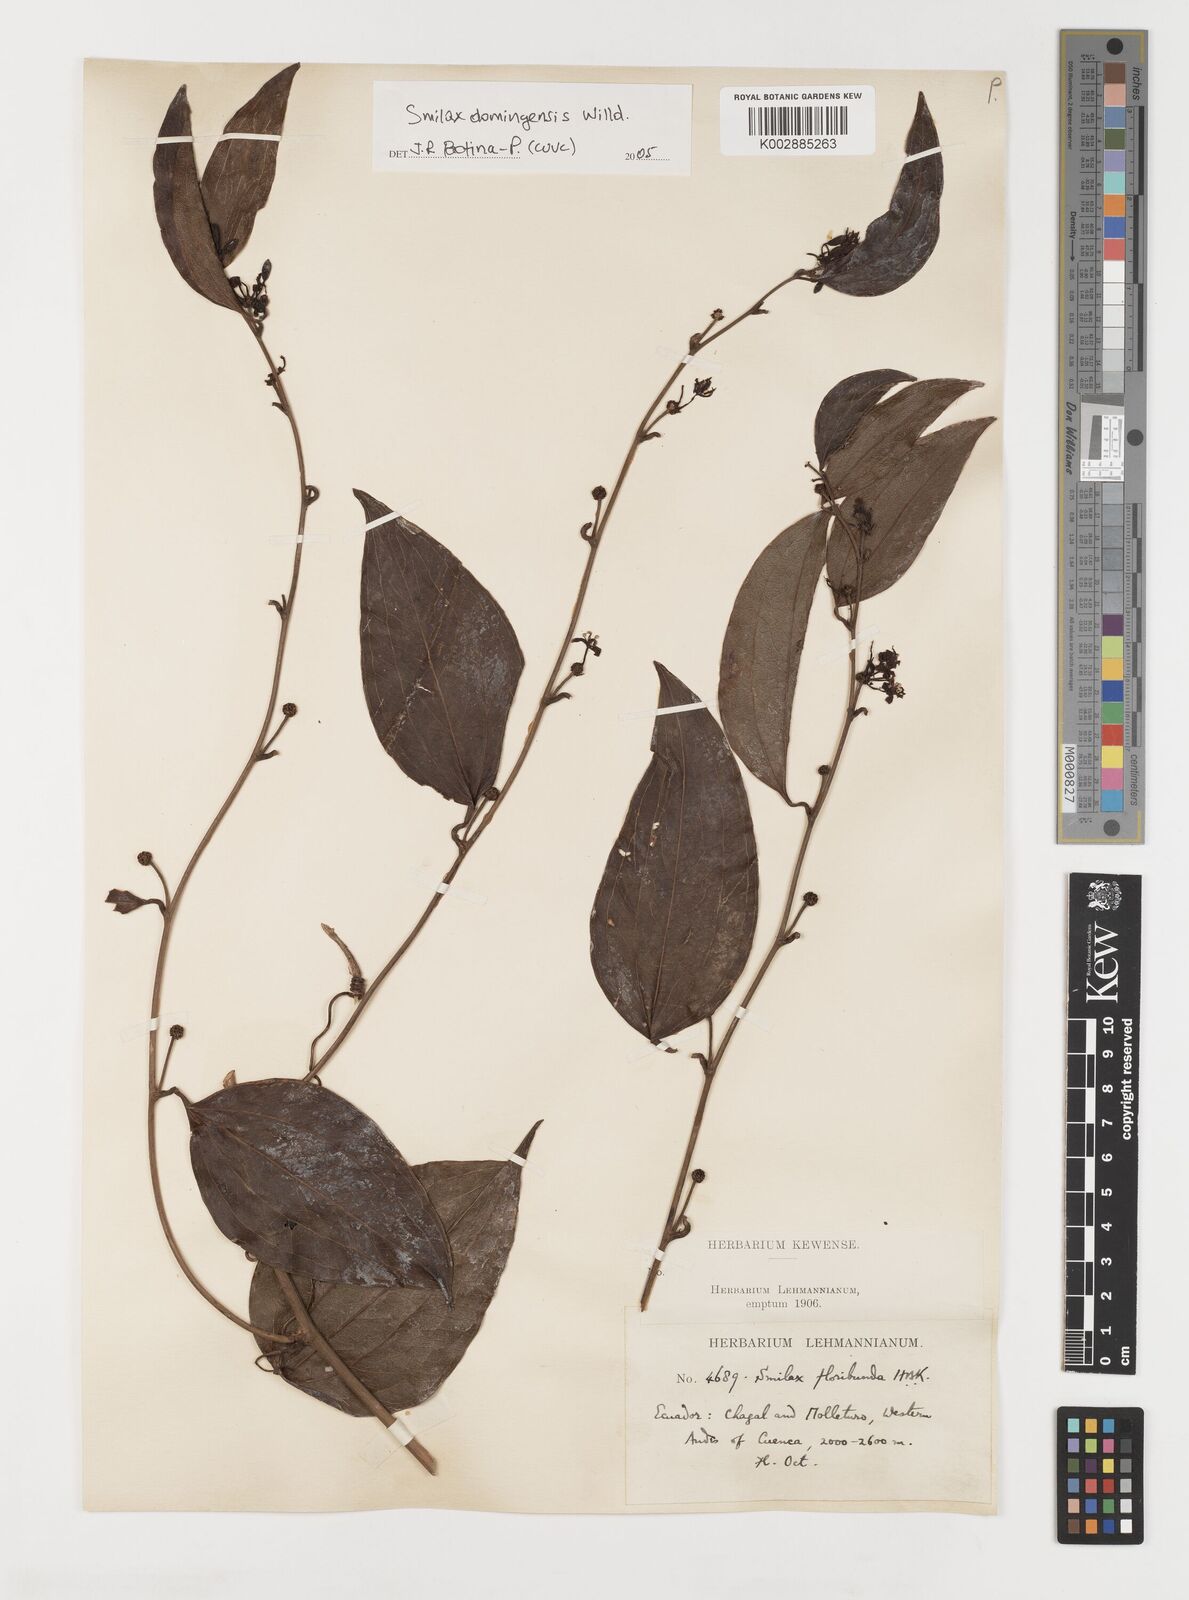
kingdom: Plantae
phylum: Tracheophyta
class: Liliopsida
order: Liliales
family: Smilacaceae
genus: Smilax
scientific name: Smilax domingensis
